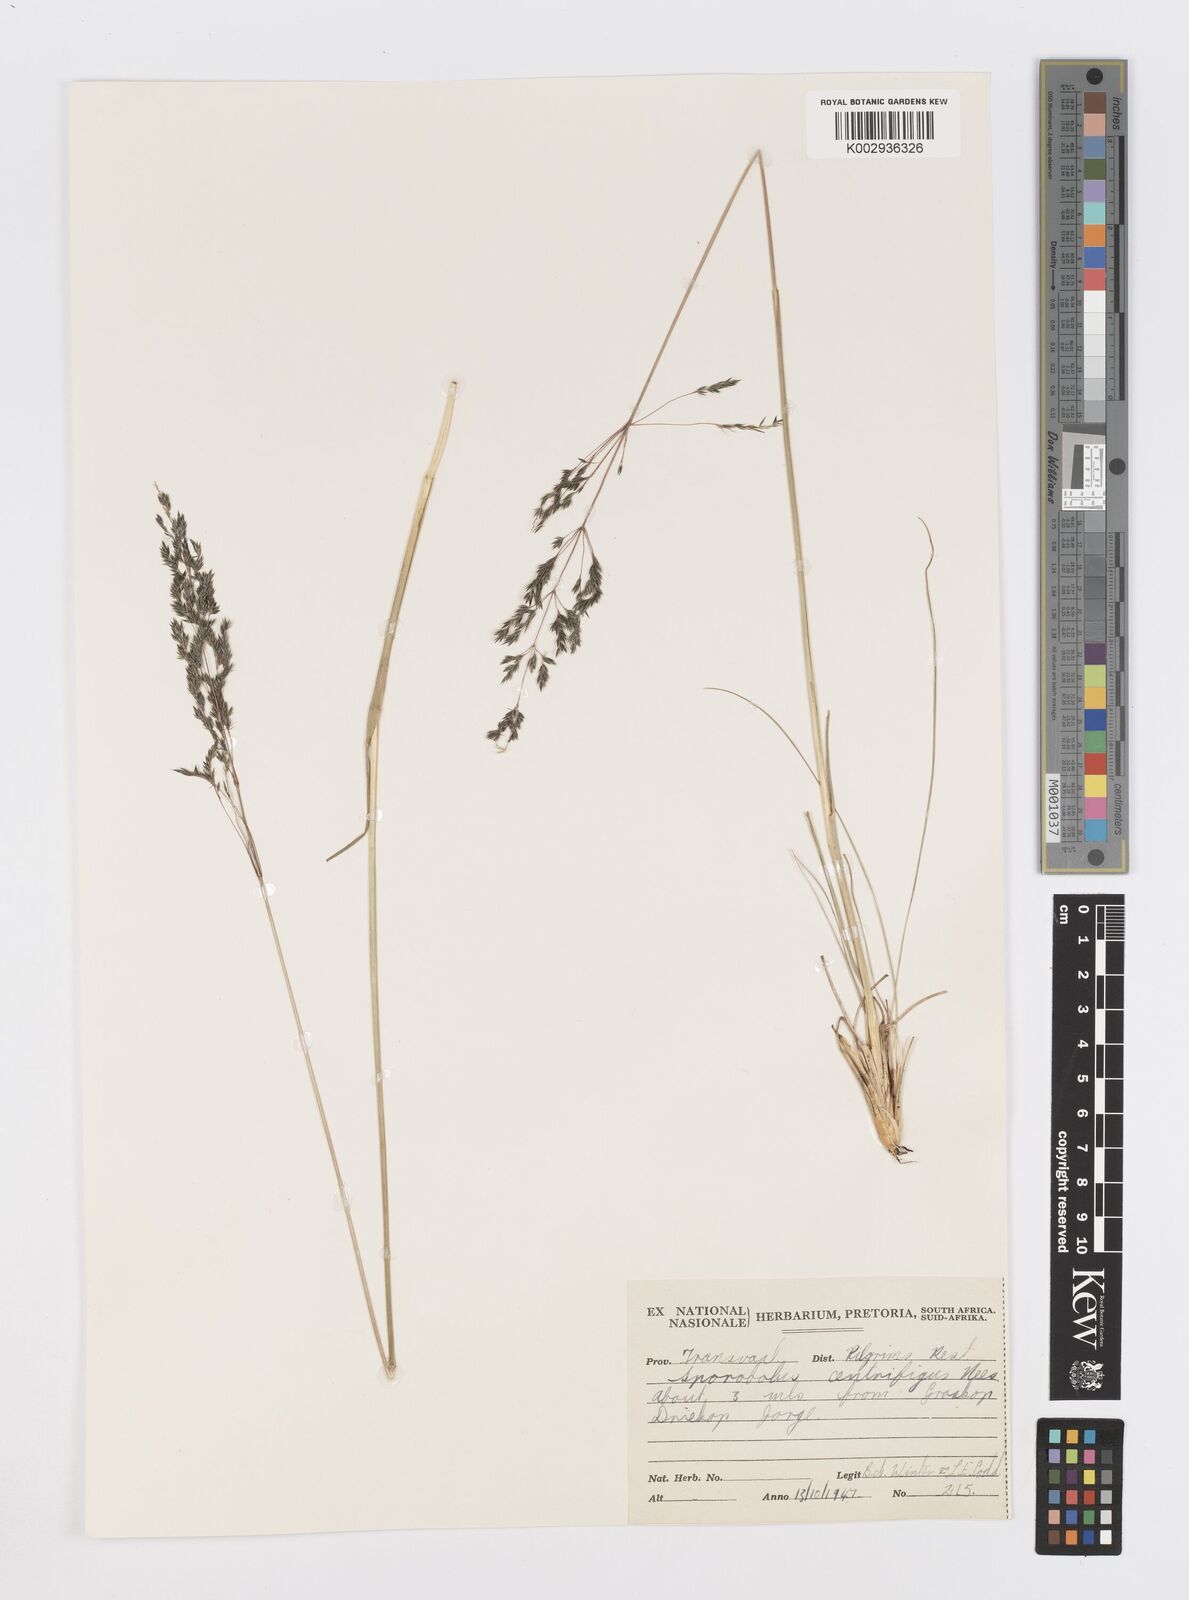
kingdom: Plantae
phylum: Tracheophyta
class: Liliopsida
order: Poales
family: Poaceae
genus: Sporobolus
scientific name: Sporobolus centrifugus
